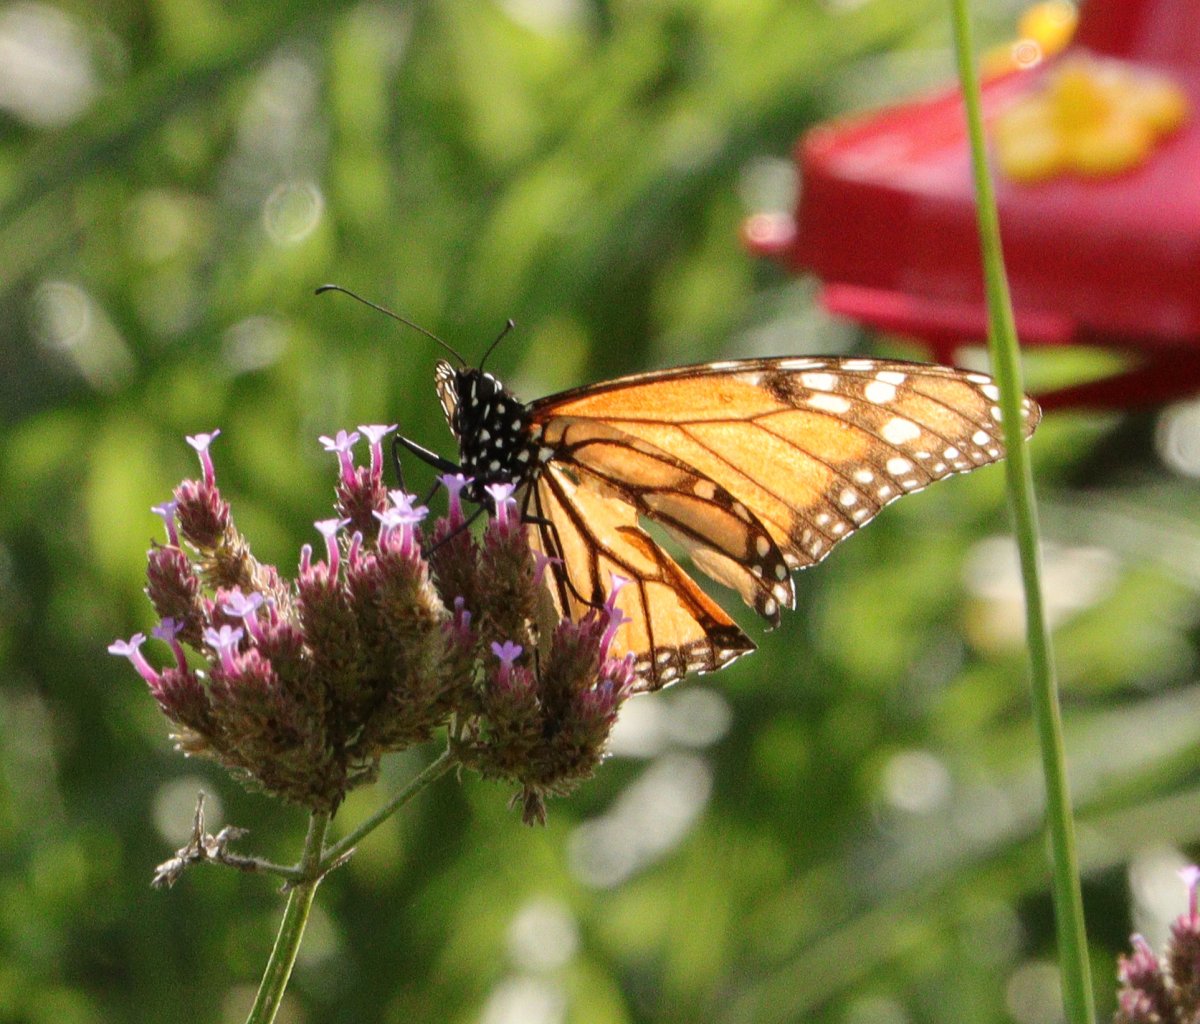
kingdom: Animalia
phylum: Arthropoda
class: Insecta
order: Lepidoptera
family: Nymphalidae
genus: Danaus
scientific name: Danaus plexippus
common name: Monarch
